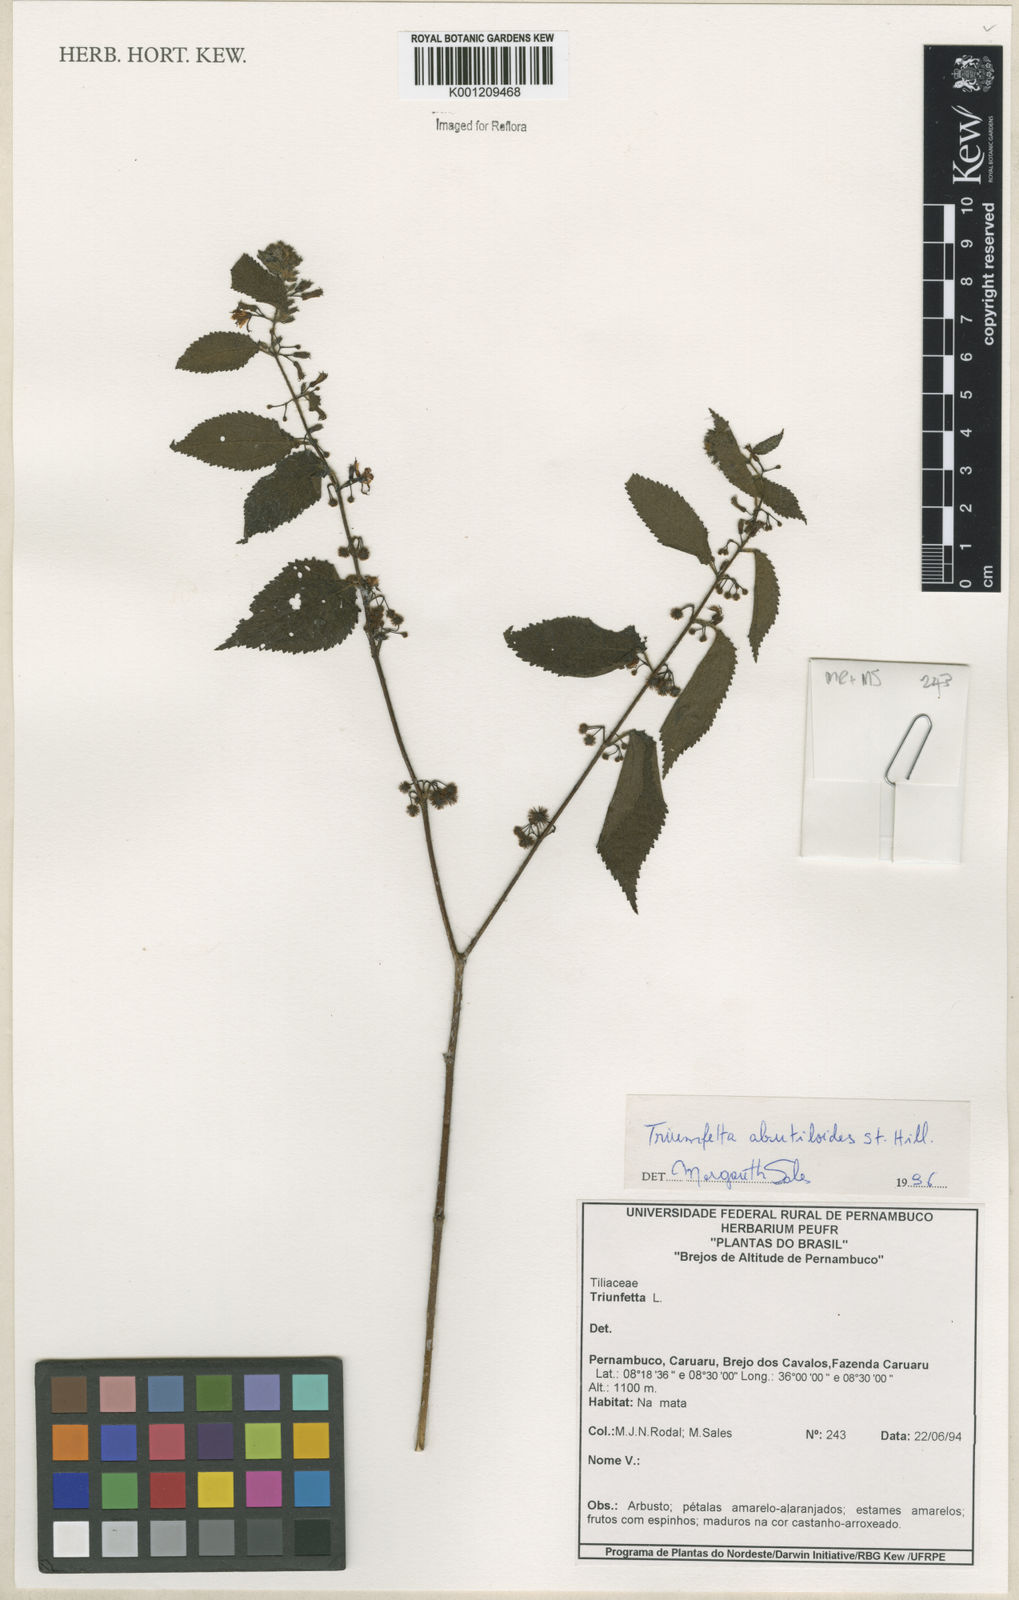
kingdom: Plantae
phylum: Tracheophyta
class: Magnoliopsida
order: Malvales
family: Malvaceae
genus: Triumfetta
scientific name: Triumfetta abutiloides
